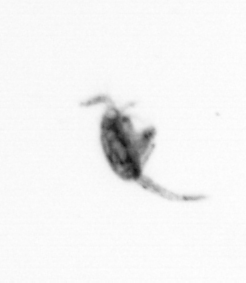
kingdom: Animalia
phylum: Arthropoda
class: Copepoda
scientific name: Copepoda
